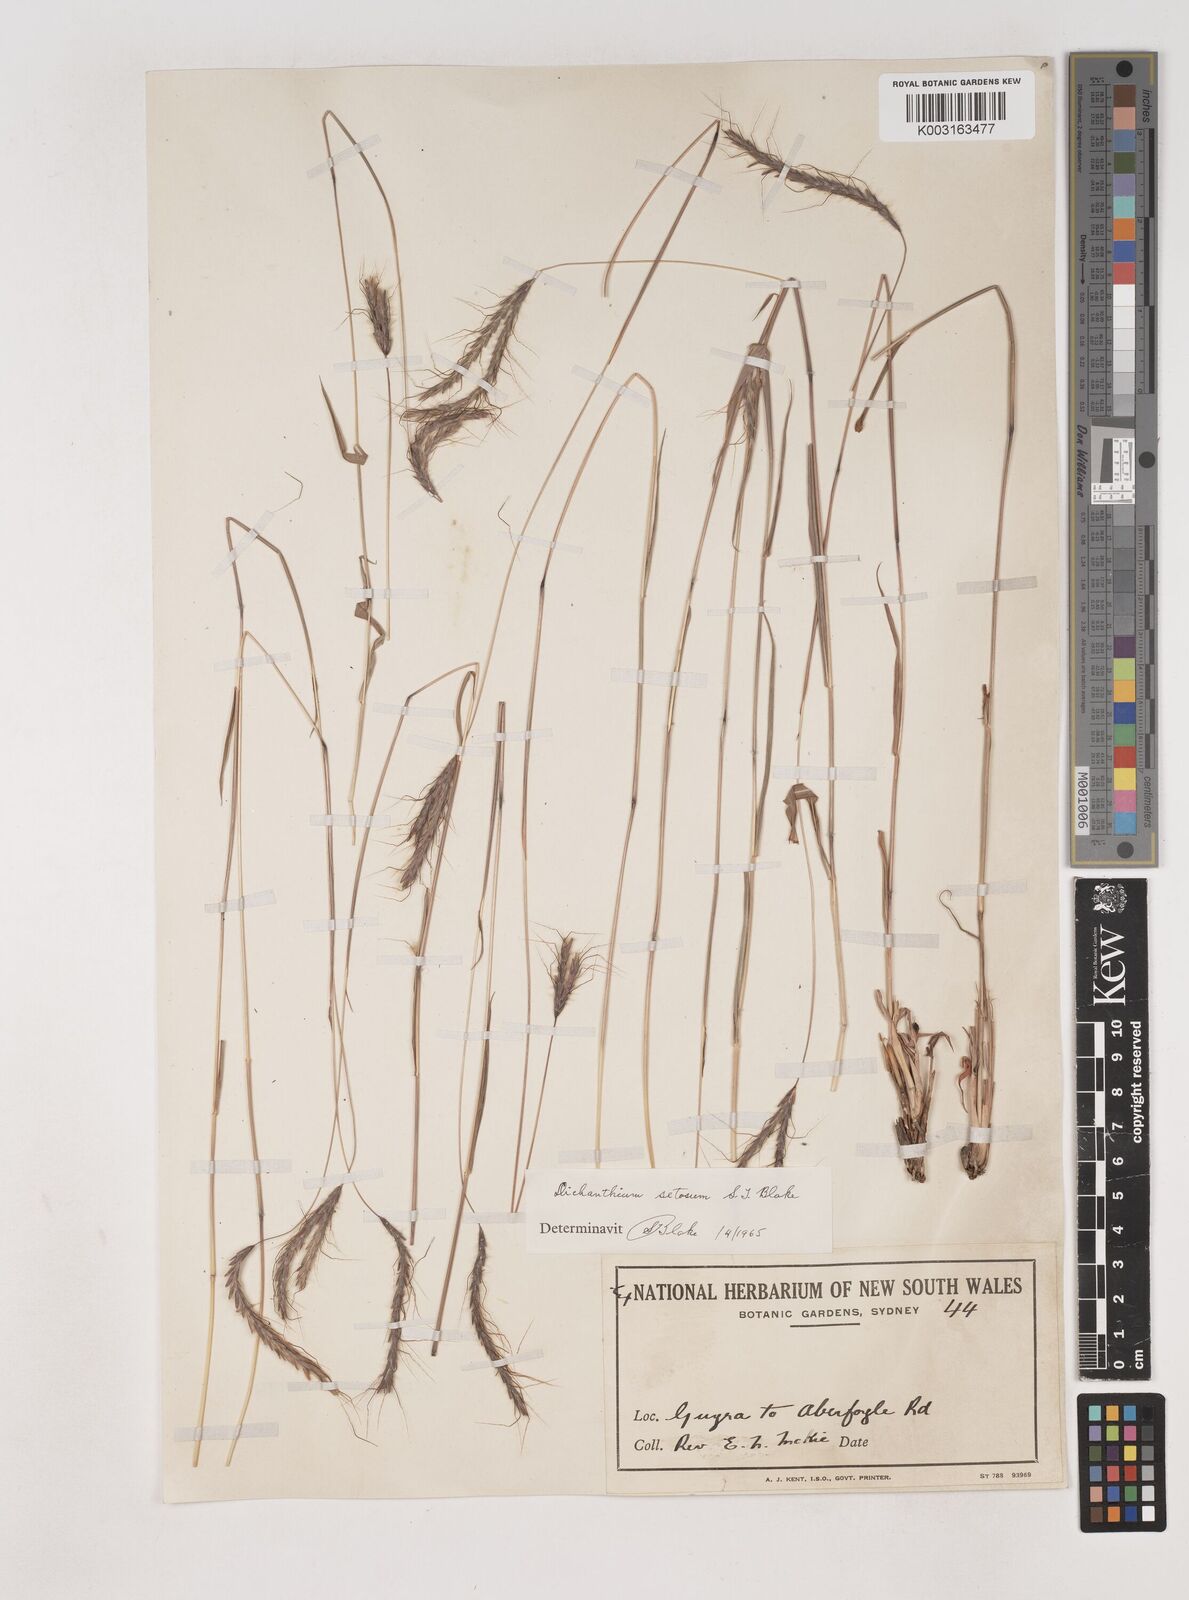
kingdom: Plantae
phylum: Tracheophyta
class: Liliopsida
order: Poales
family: Poaceae
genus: Dichanthium
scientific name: Dichanthium setosum
